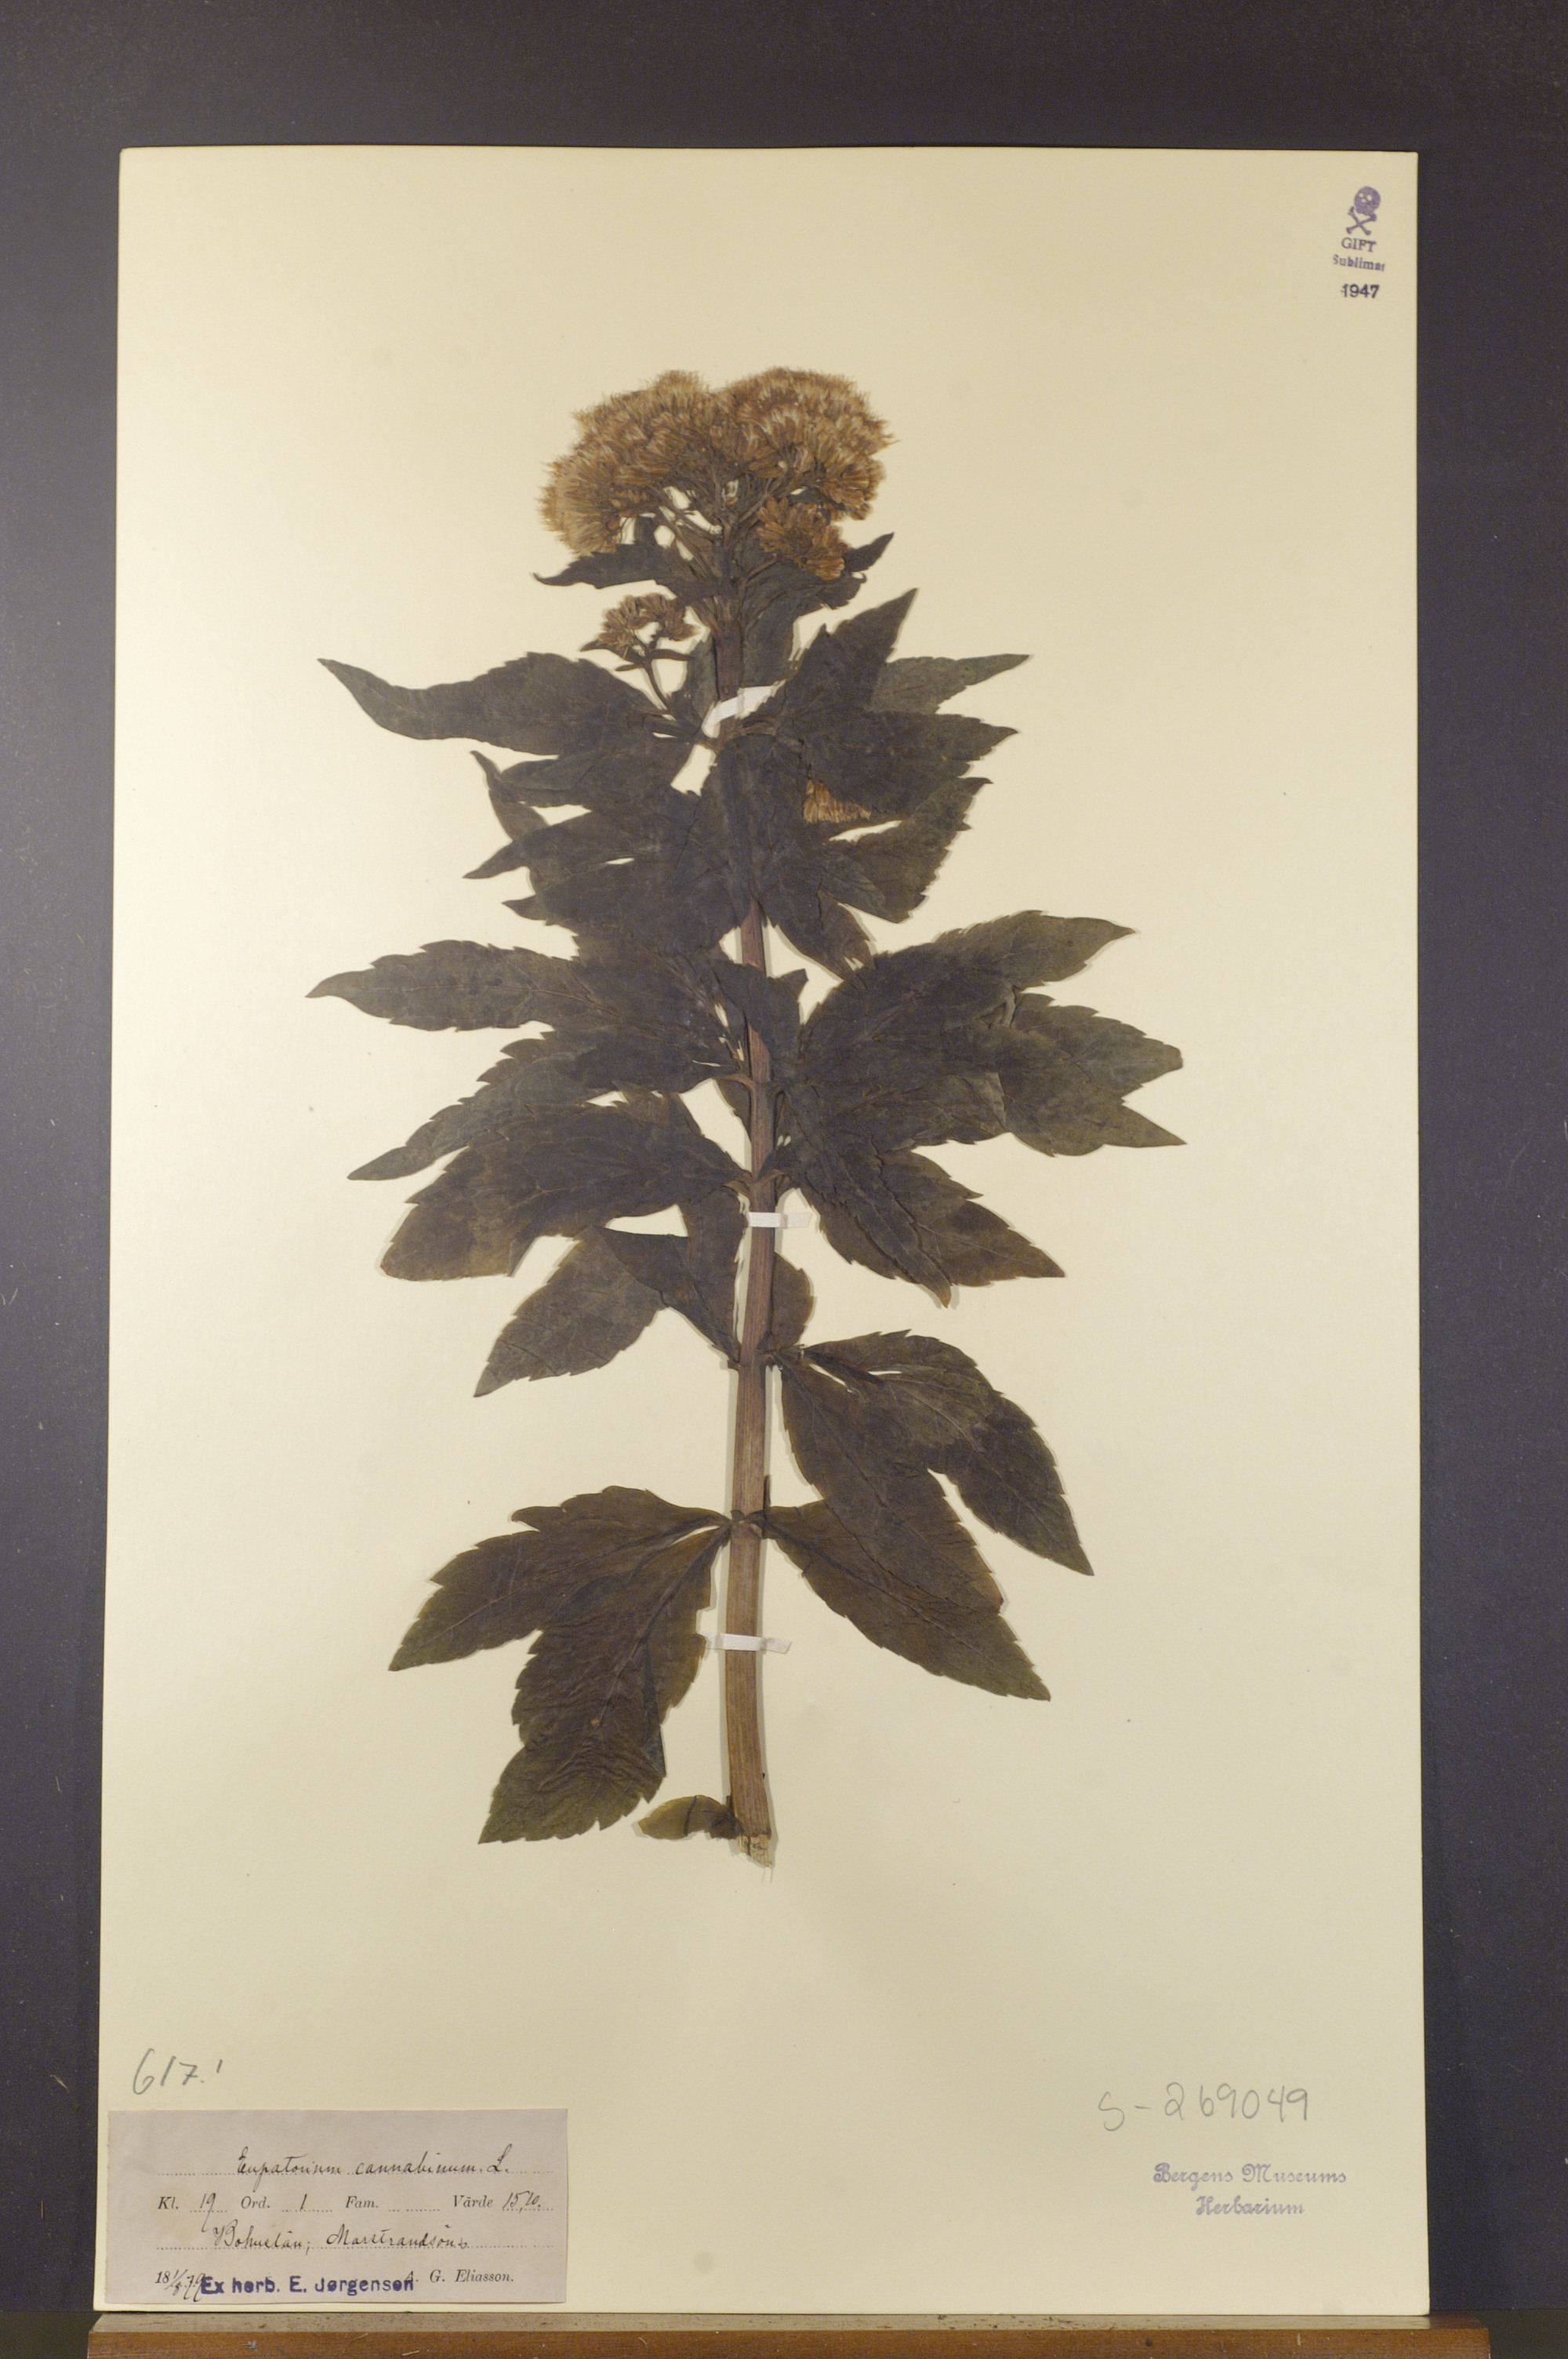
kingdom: Plantae
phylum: Tracheophyta
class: Magnoliopsida
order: Asterales
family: Asteraceae
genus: Eupatorium
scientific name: Eupatorium cannabinum
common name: Hemp-agrimony
